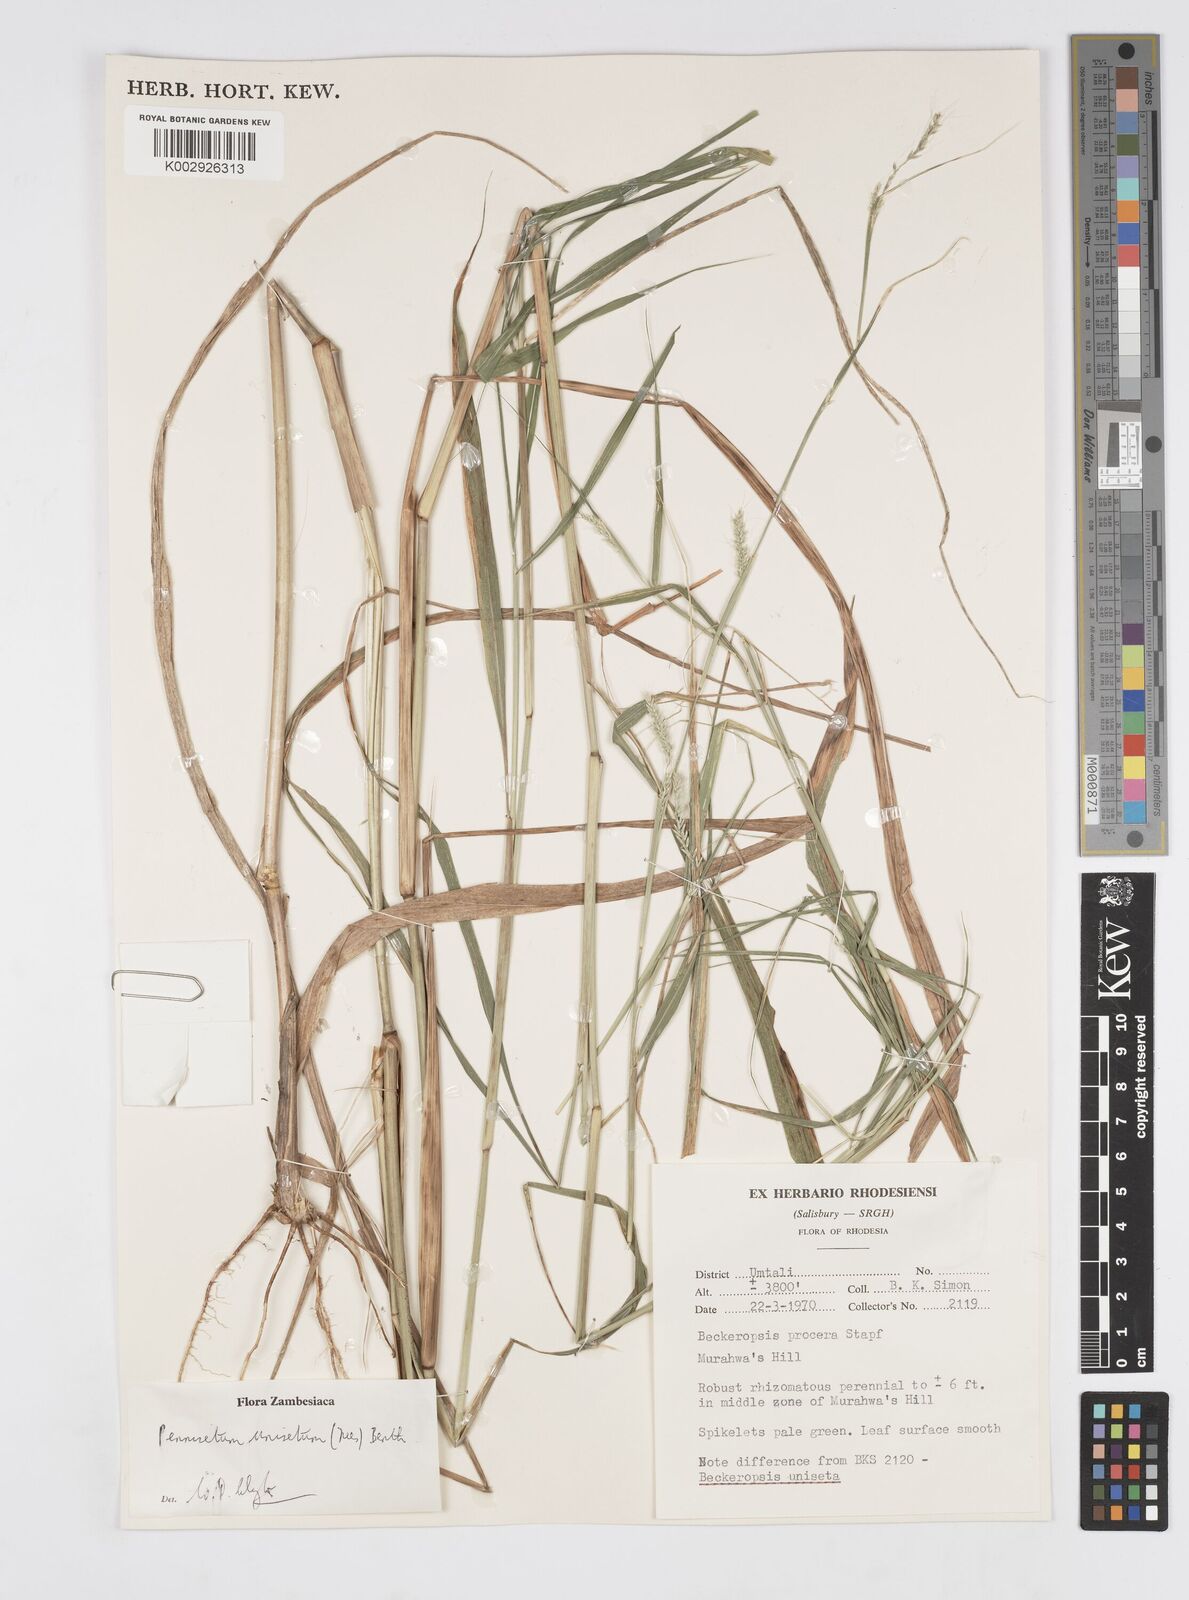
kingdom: Plantae
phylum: Tracheophyta
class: Liliopsida
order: Poales
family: Poaceae
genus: Cenchrus
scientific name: Cenchrus unisetus
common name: Natal grass
